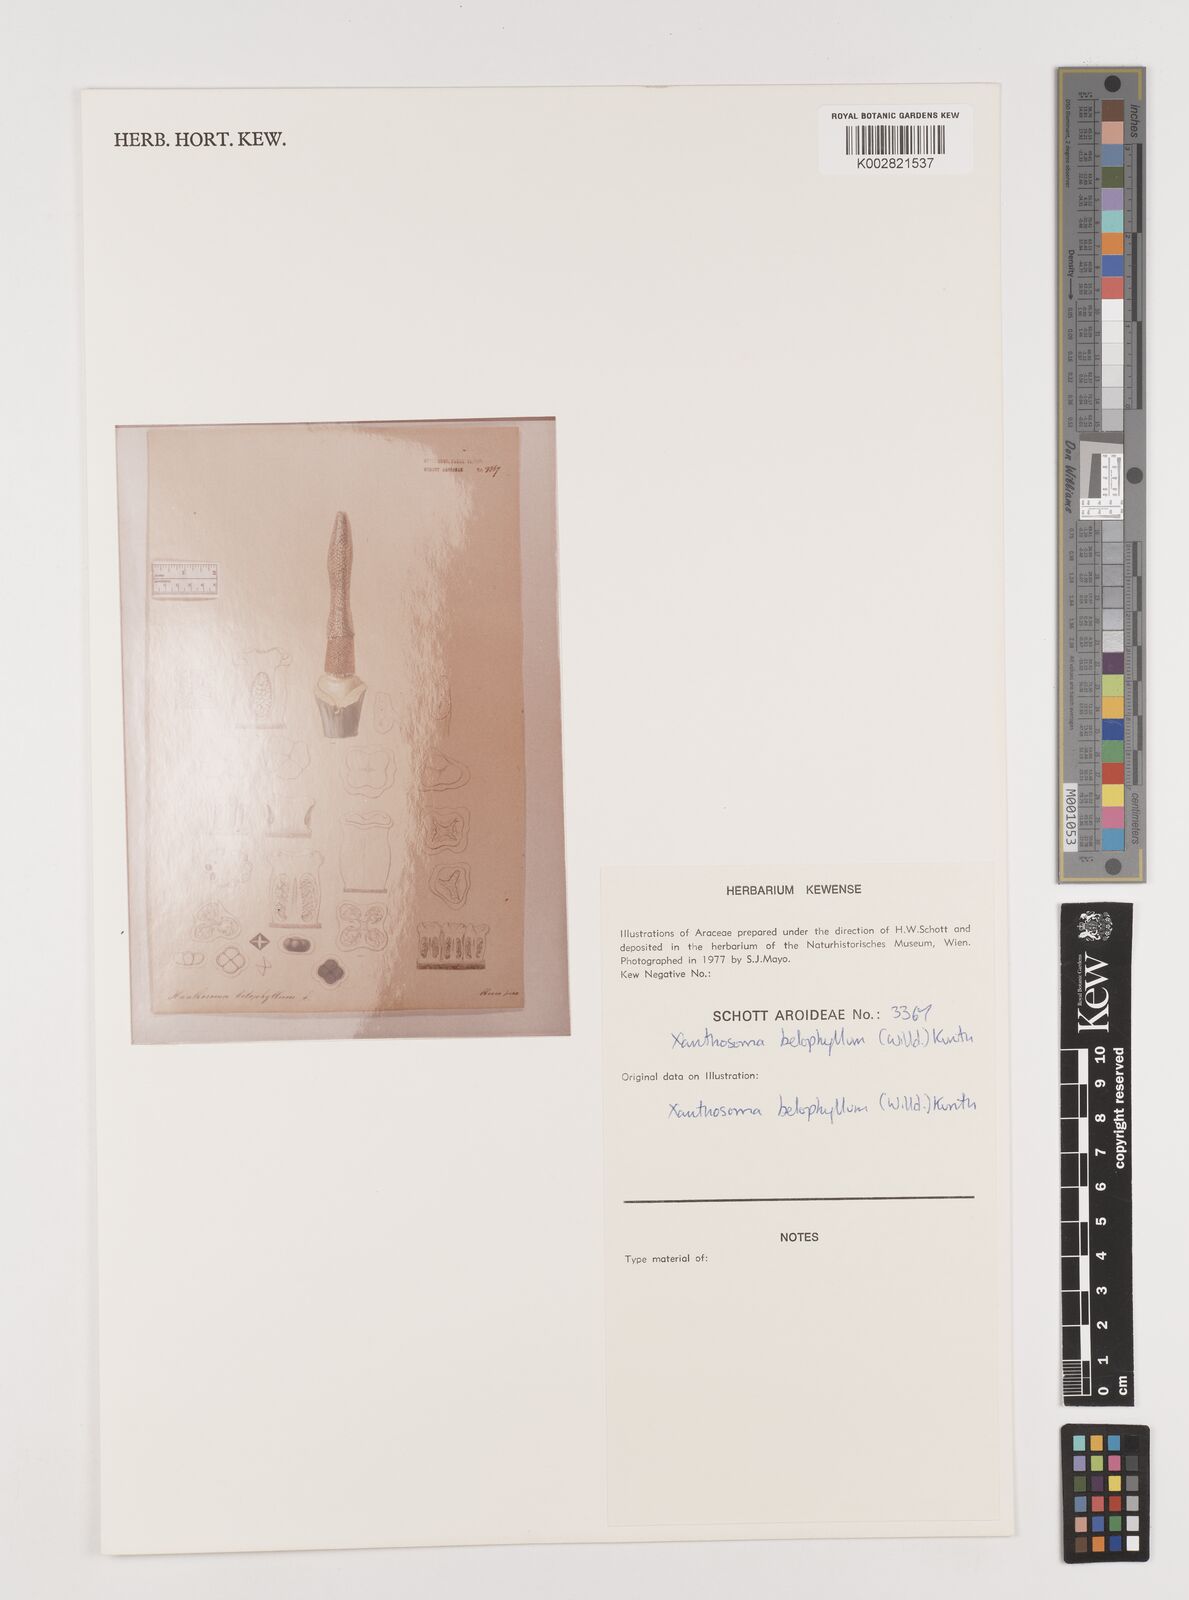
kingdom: Plantae
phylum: Tracheophyta
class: Liliopsida
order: Alismatales
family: Araceae
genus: Xanthosoma
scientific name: Xanthosoma belophyllum
